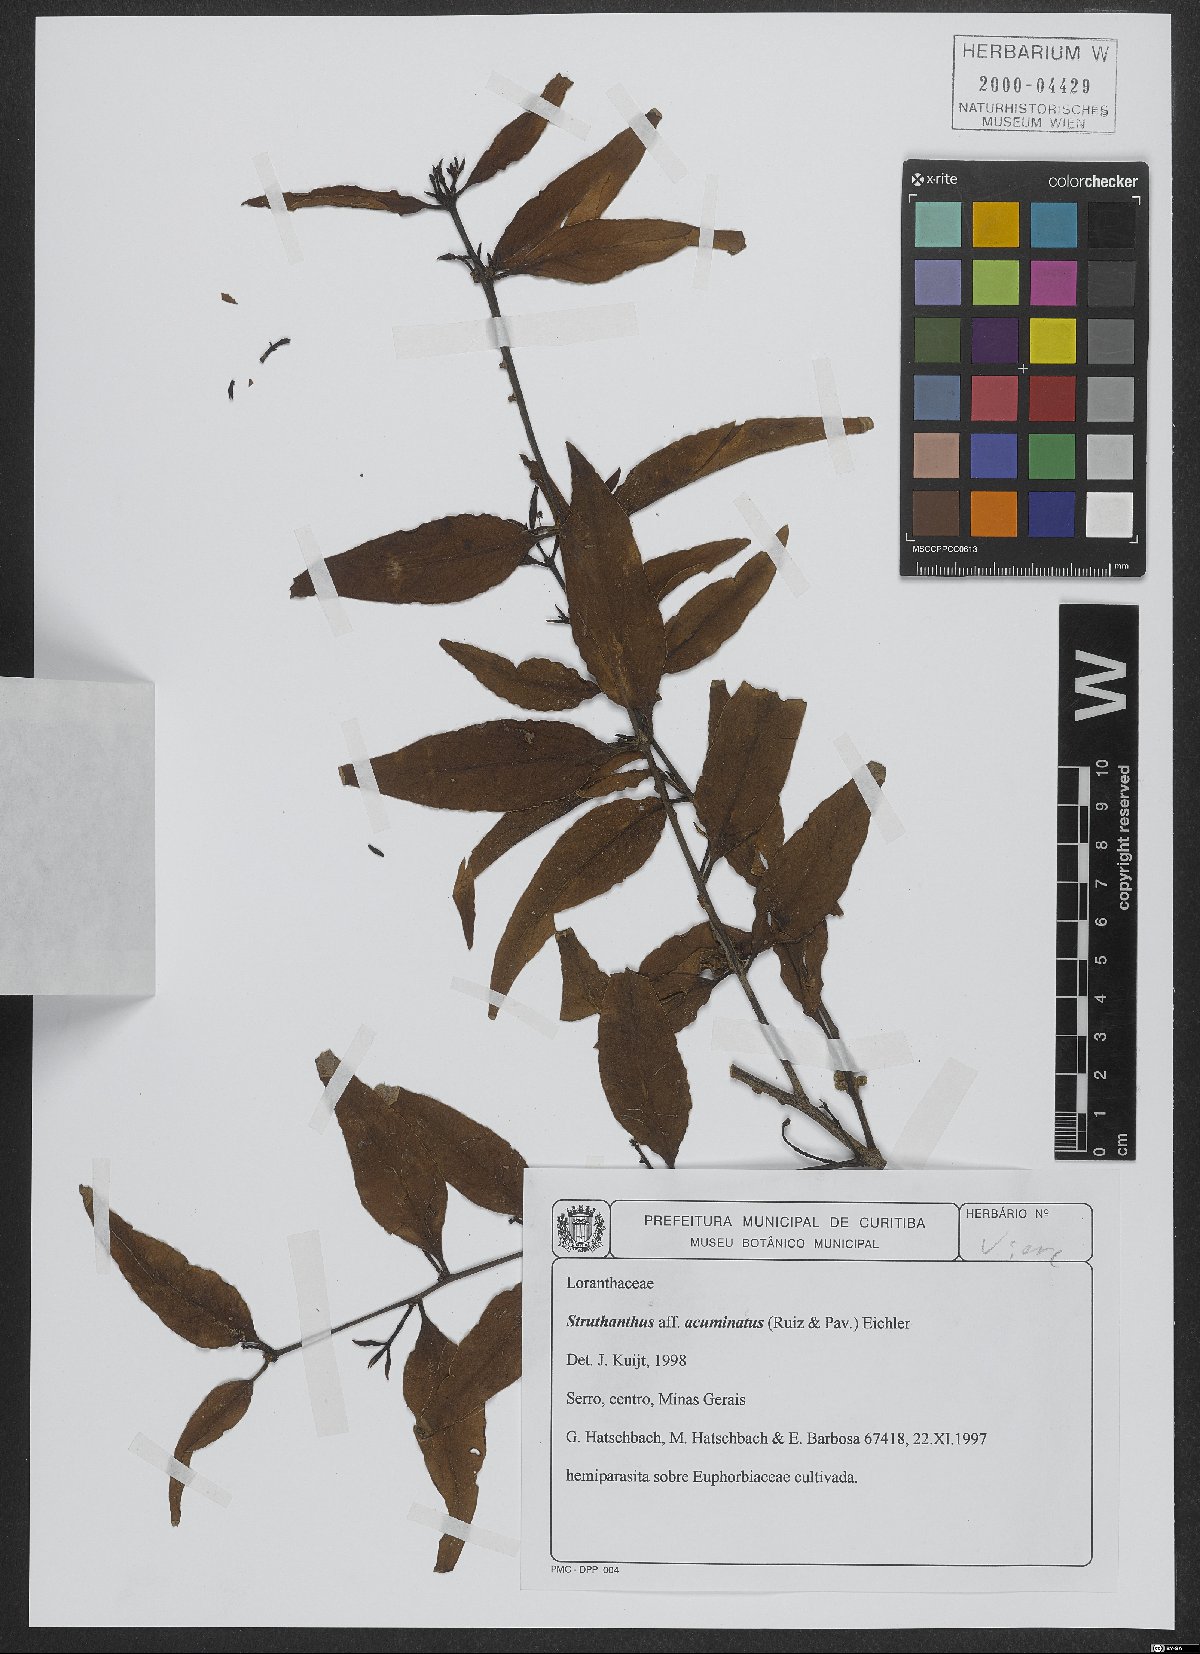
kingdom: Plantae
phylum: Tracheophyta
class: Magnoliopsida
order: Santalales
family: Loranthaceae
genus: Struthanthus
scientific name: Struthanthus acuminatus
